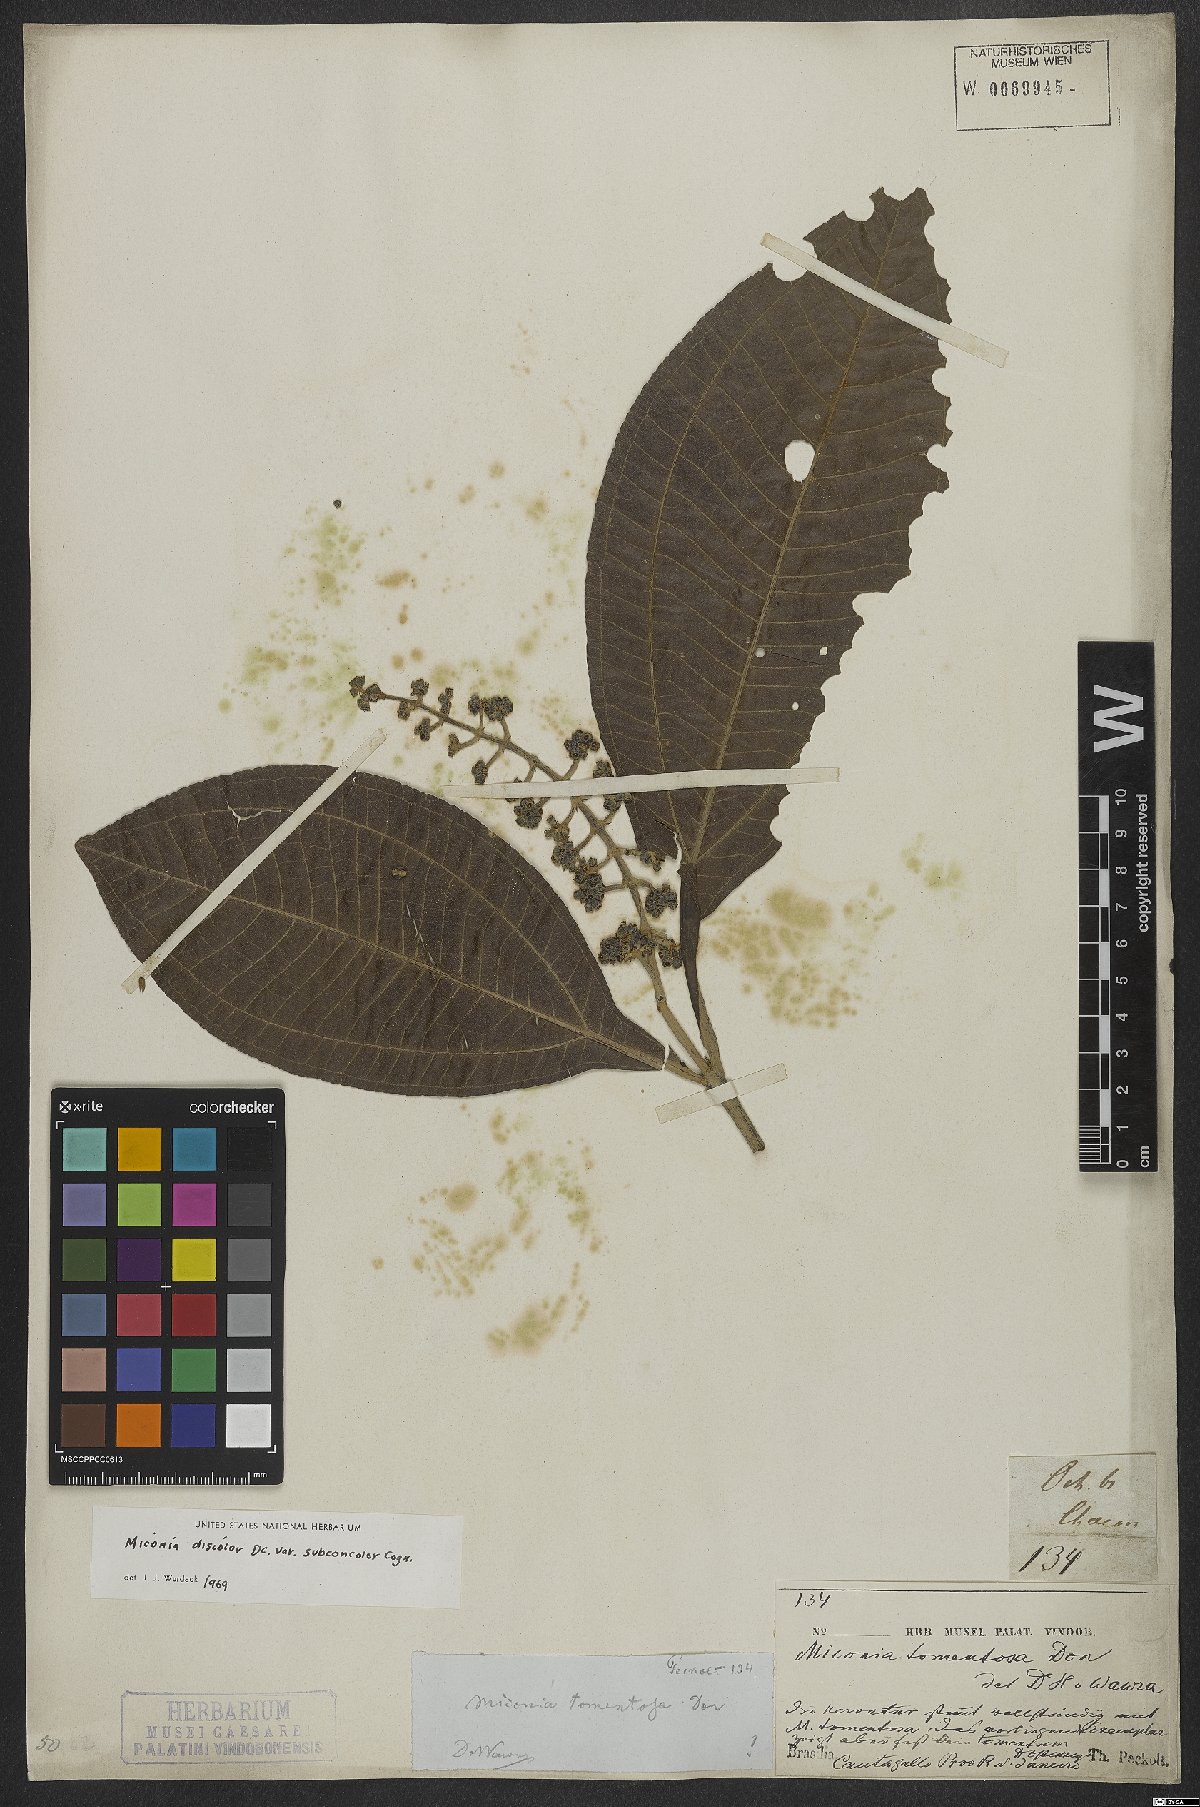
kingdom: Plantae
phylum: Tracheophyta
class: Magnoliopsida
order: Myrtales
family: Melastomataceae
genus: Miconia
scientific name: Miconia discolor
